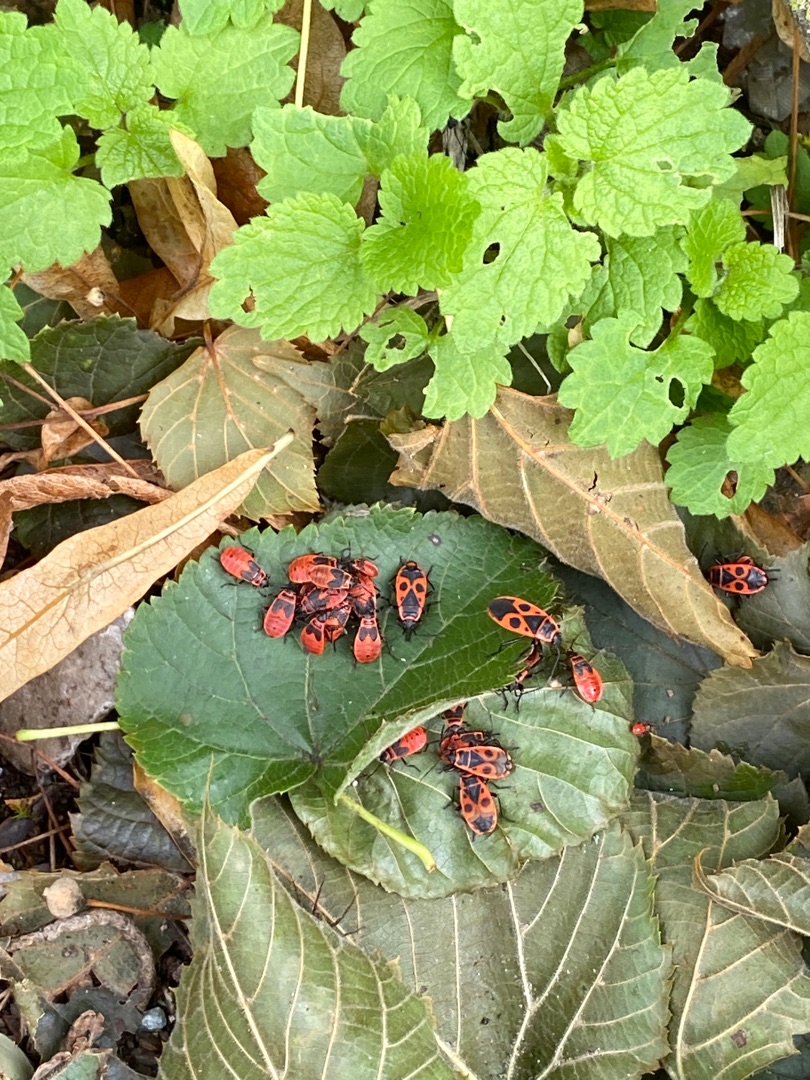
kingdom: Animalia
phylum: Arthropoda
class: Insecta
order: Hemiptera
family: Pyrrhocoridae
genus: Pyrrhocoris
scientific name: Pyrrhocoris apterus
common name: Ildtæge
